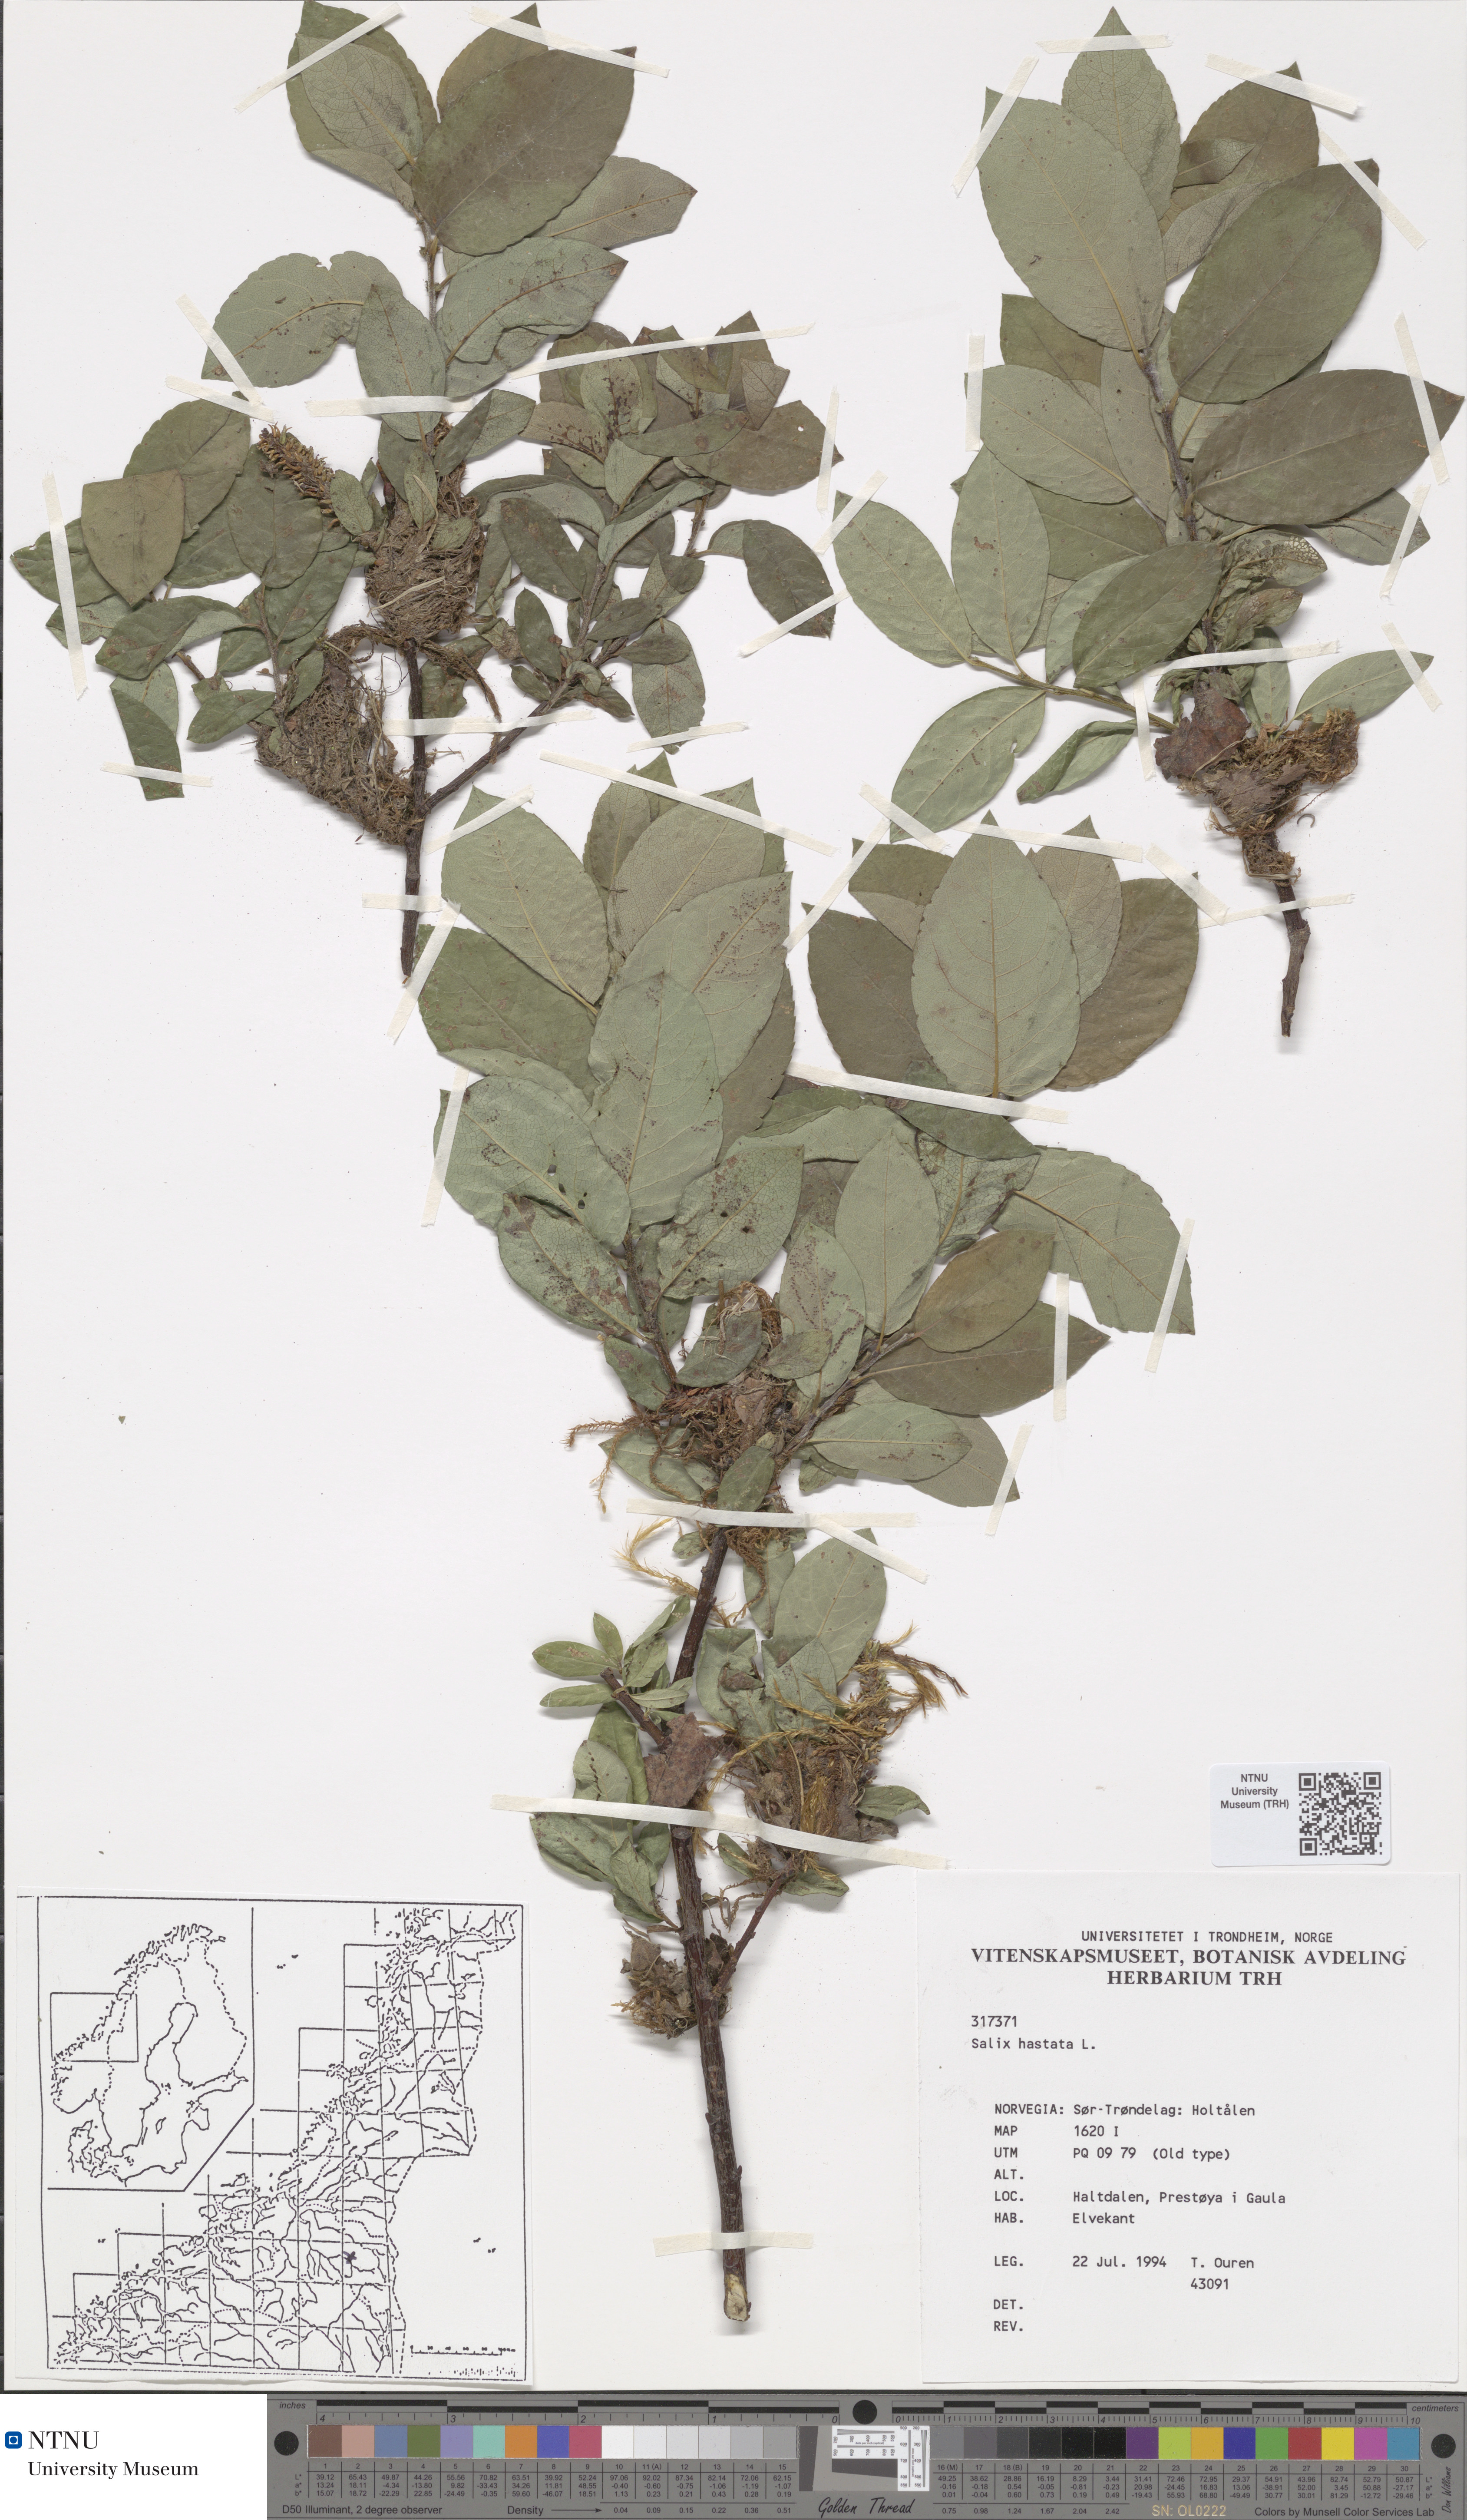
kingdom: Plantae
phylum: Tracheophyta
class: Magnoliopsida
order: Malpighiales
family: Salicaceae
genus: Salix
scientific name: Salix hastata
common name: Halberd willow
